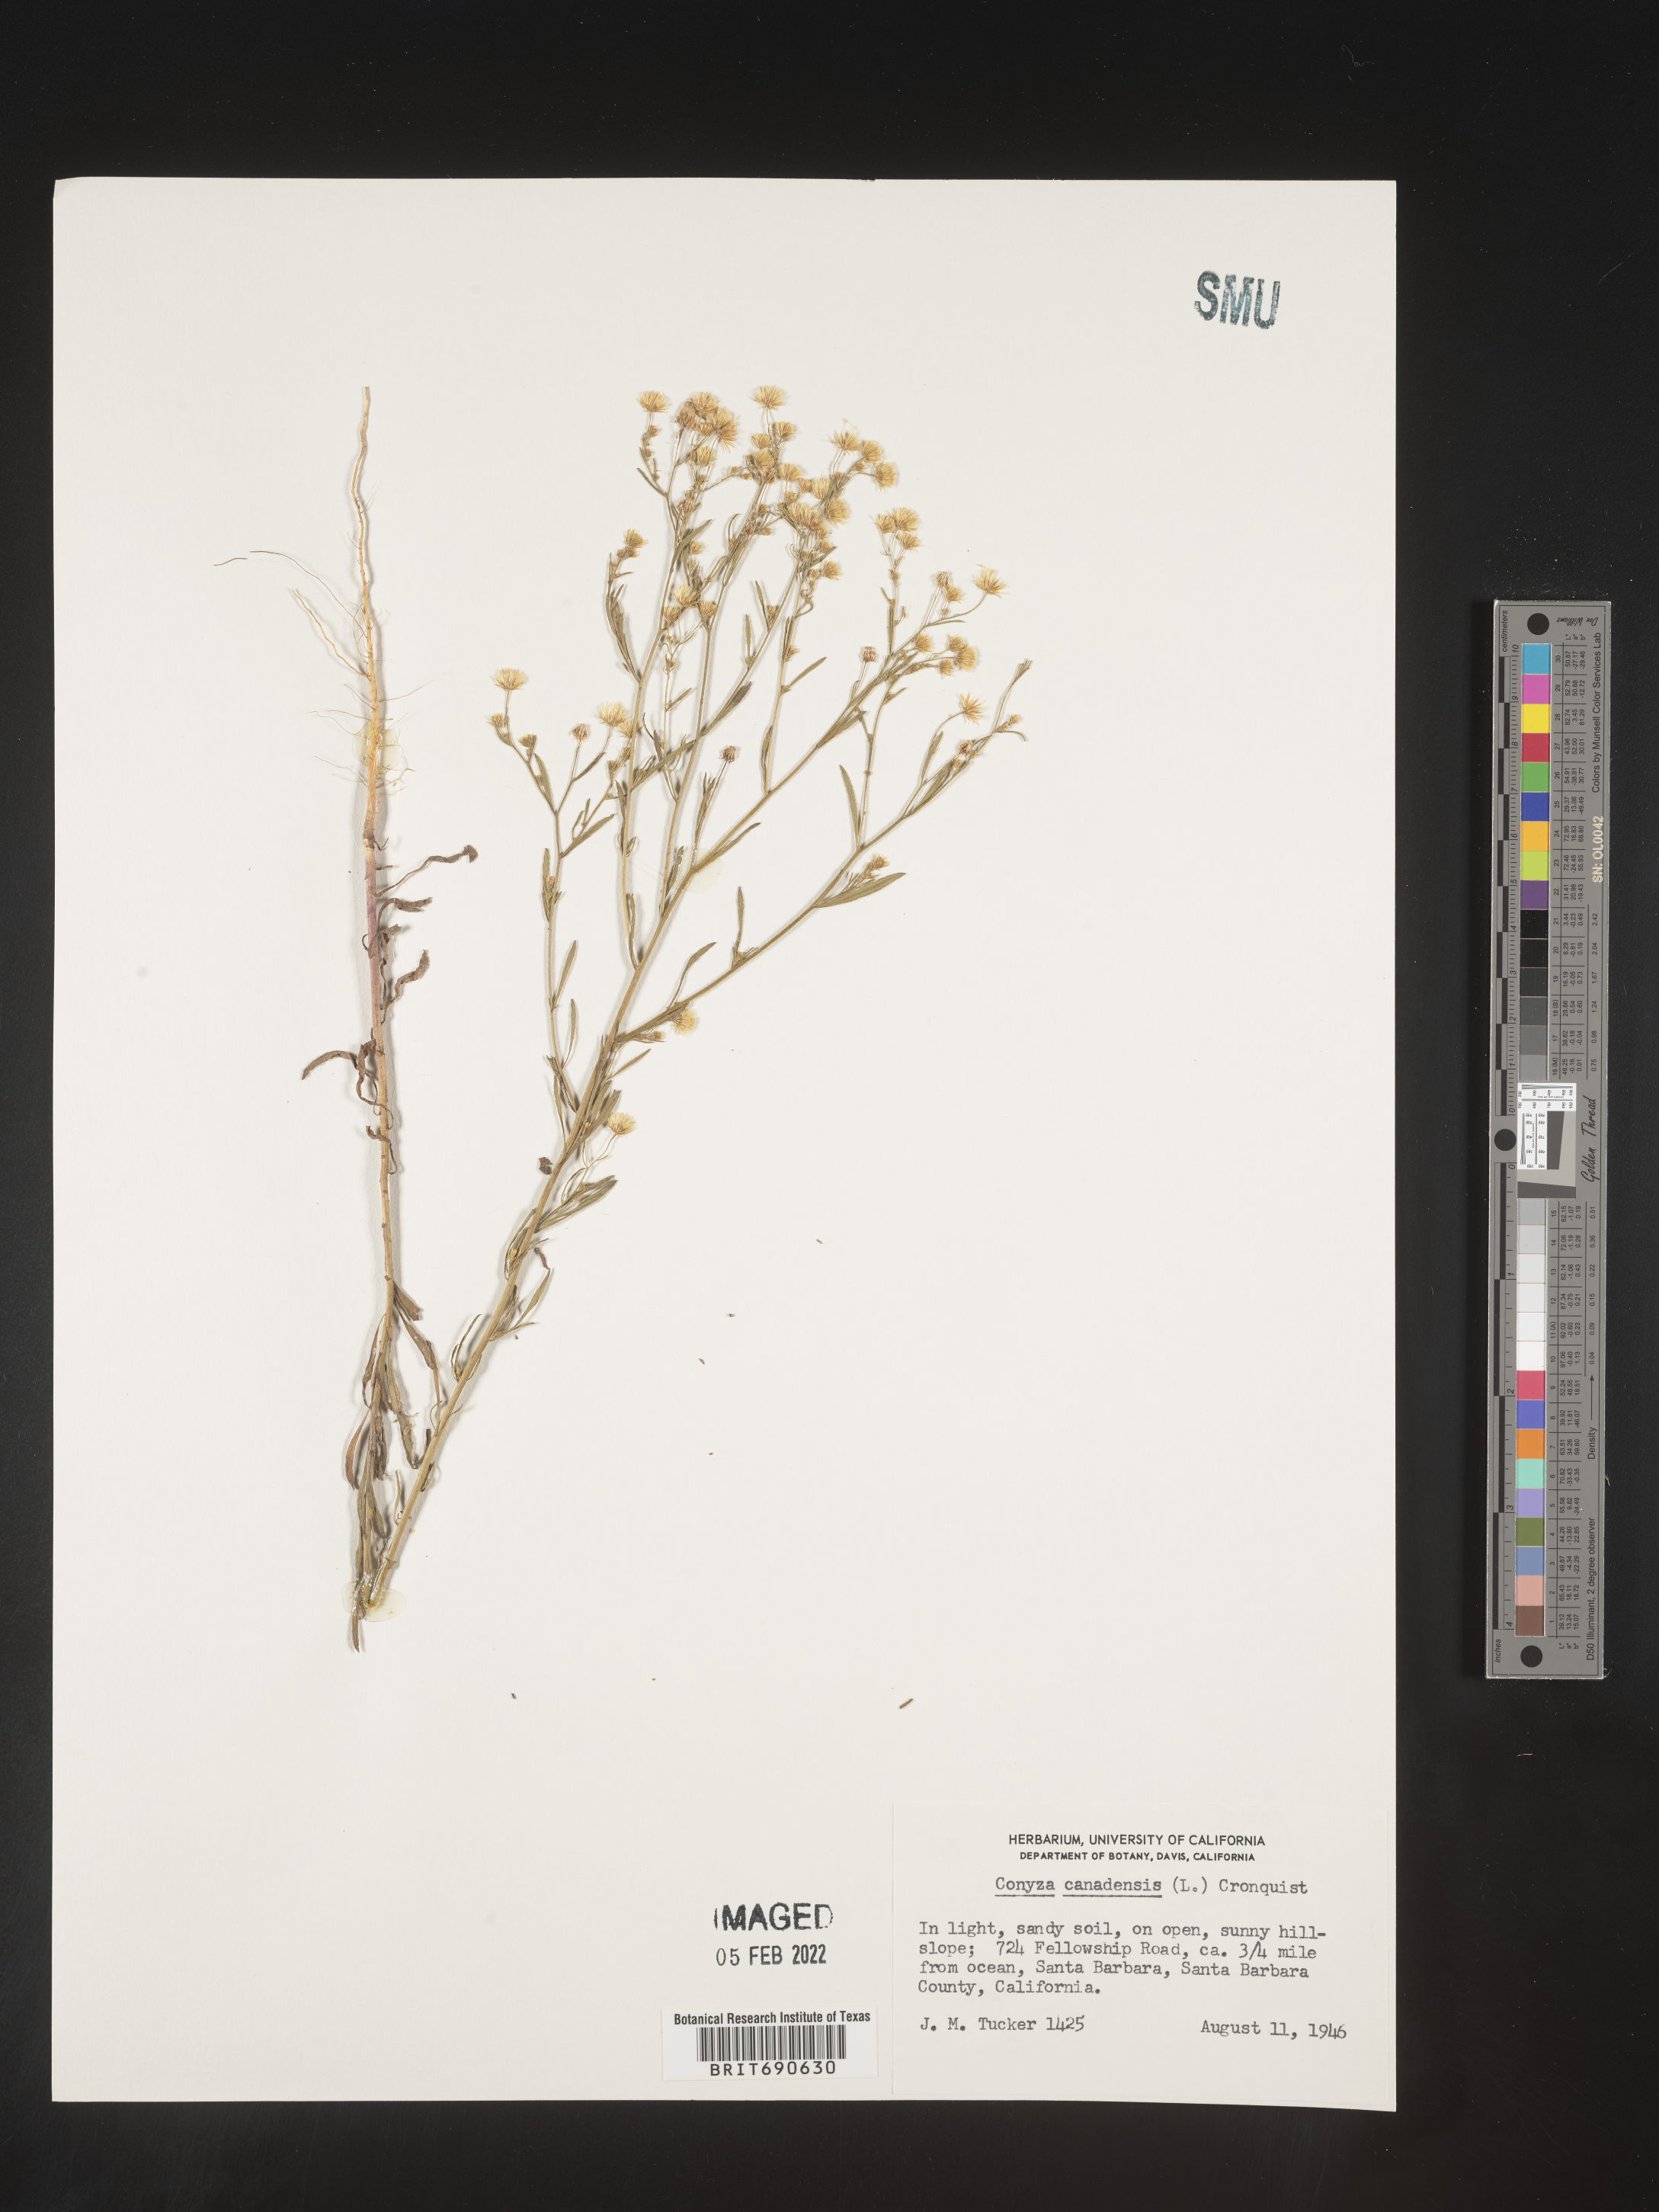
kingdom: Plantae
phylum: Tracheophyta
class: Magnoliopsida
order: Asterales
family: Asteraceae
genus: Erigeron
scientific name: Erigeron canadensis
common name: Canadian fleabane
